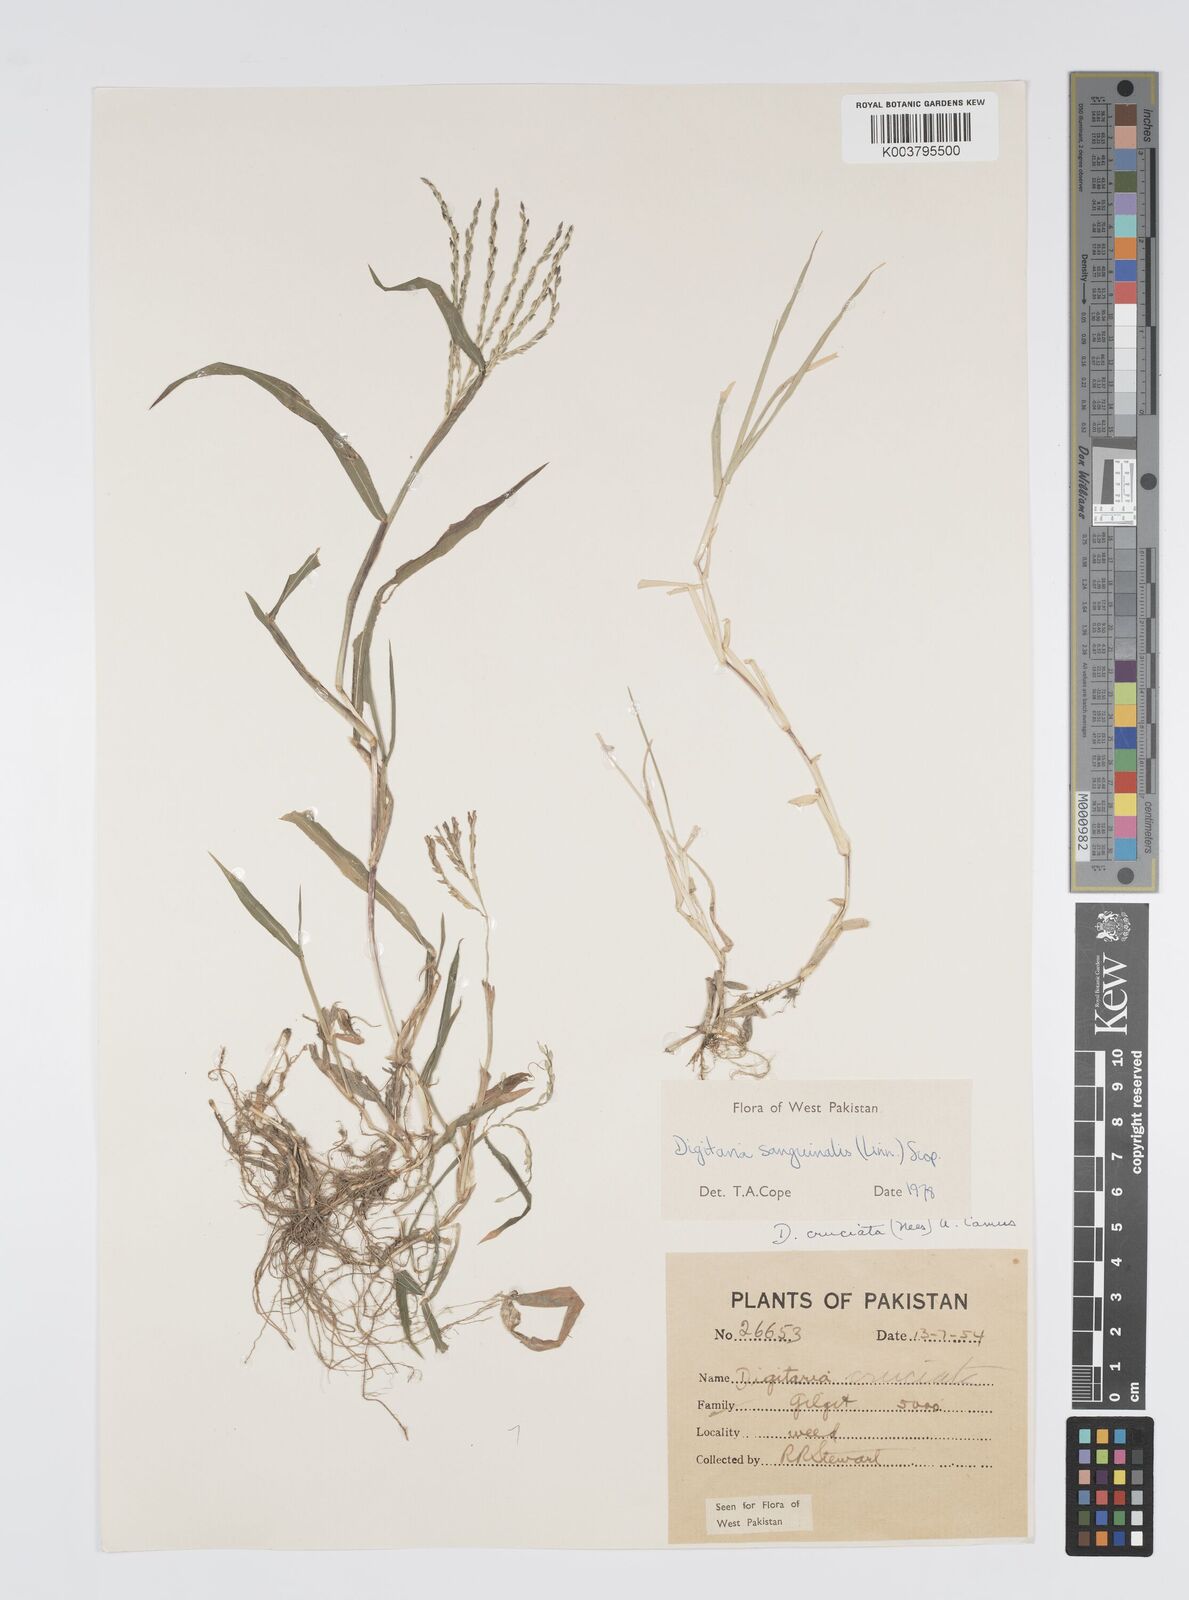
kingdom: Plantae
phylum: Tracheophyta
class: Liliopsida
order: Poales
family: Poaceae
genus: Digitaria
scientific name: Digitaria sanguinalis
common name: Hairy crabgrass
